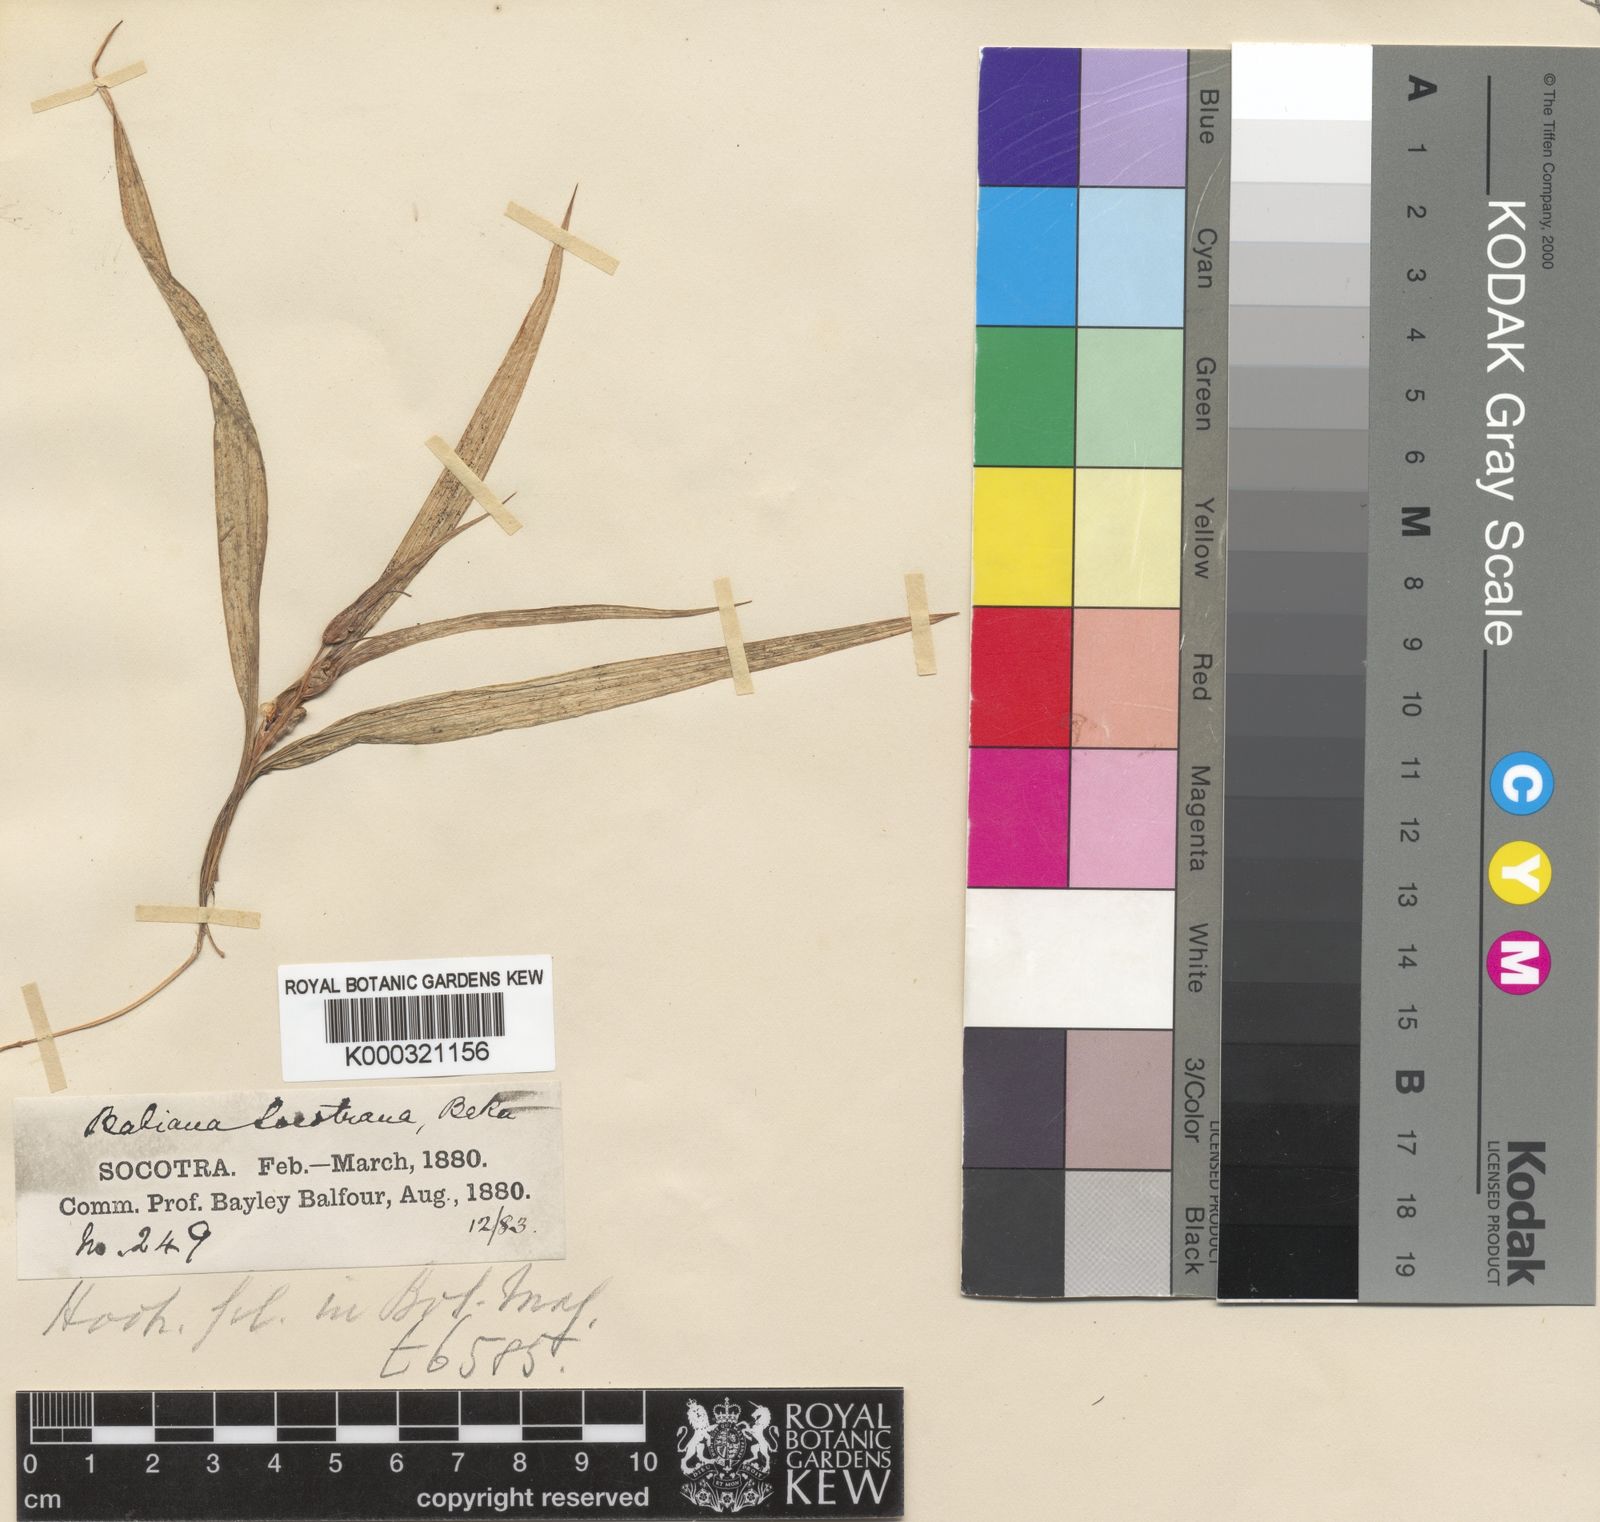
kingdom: Plantae
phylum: Tracheophyta
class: Liliopsida
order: Asparagales
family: Iridaceae
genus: Cyanixia
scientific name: Cyanixia socotrana
